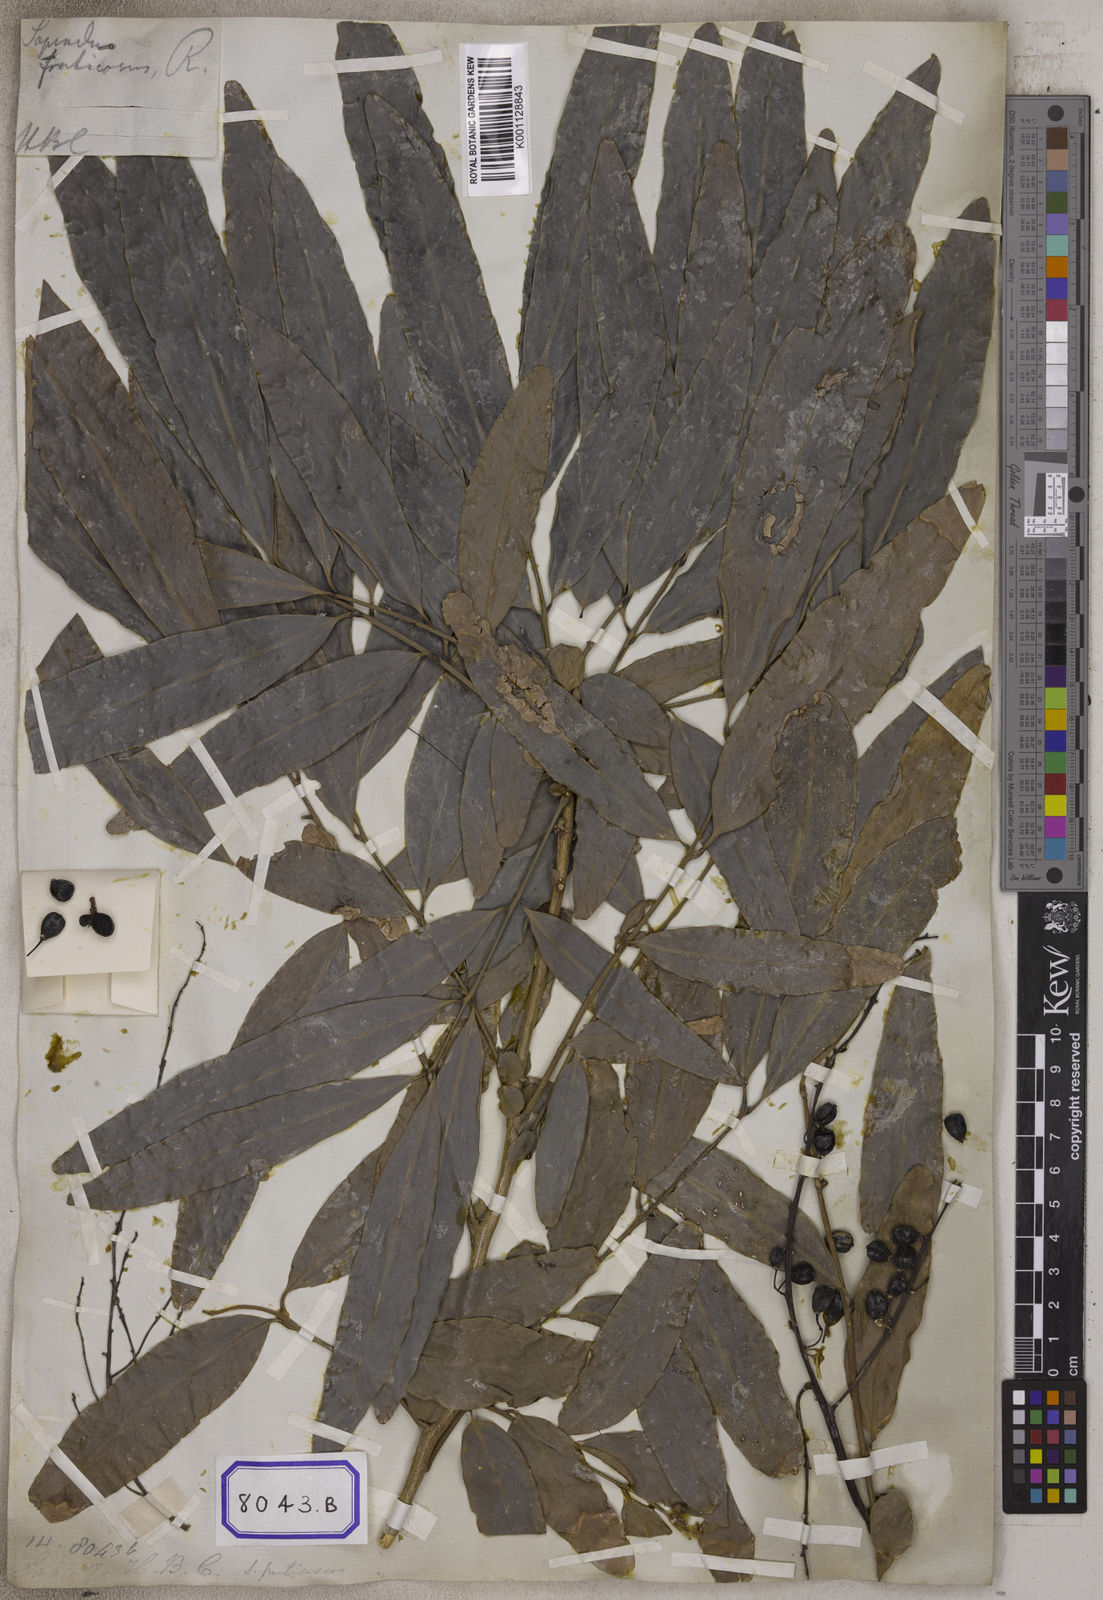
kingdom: Plantae
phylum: Tracheophyta
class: Magnoliopsida
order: Sapindales
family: Sapindaceae
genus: Lepisanthes
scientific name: Lepisanthes fruticosa
